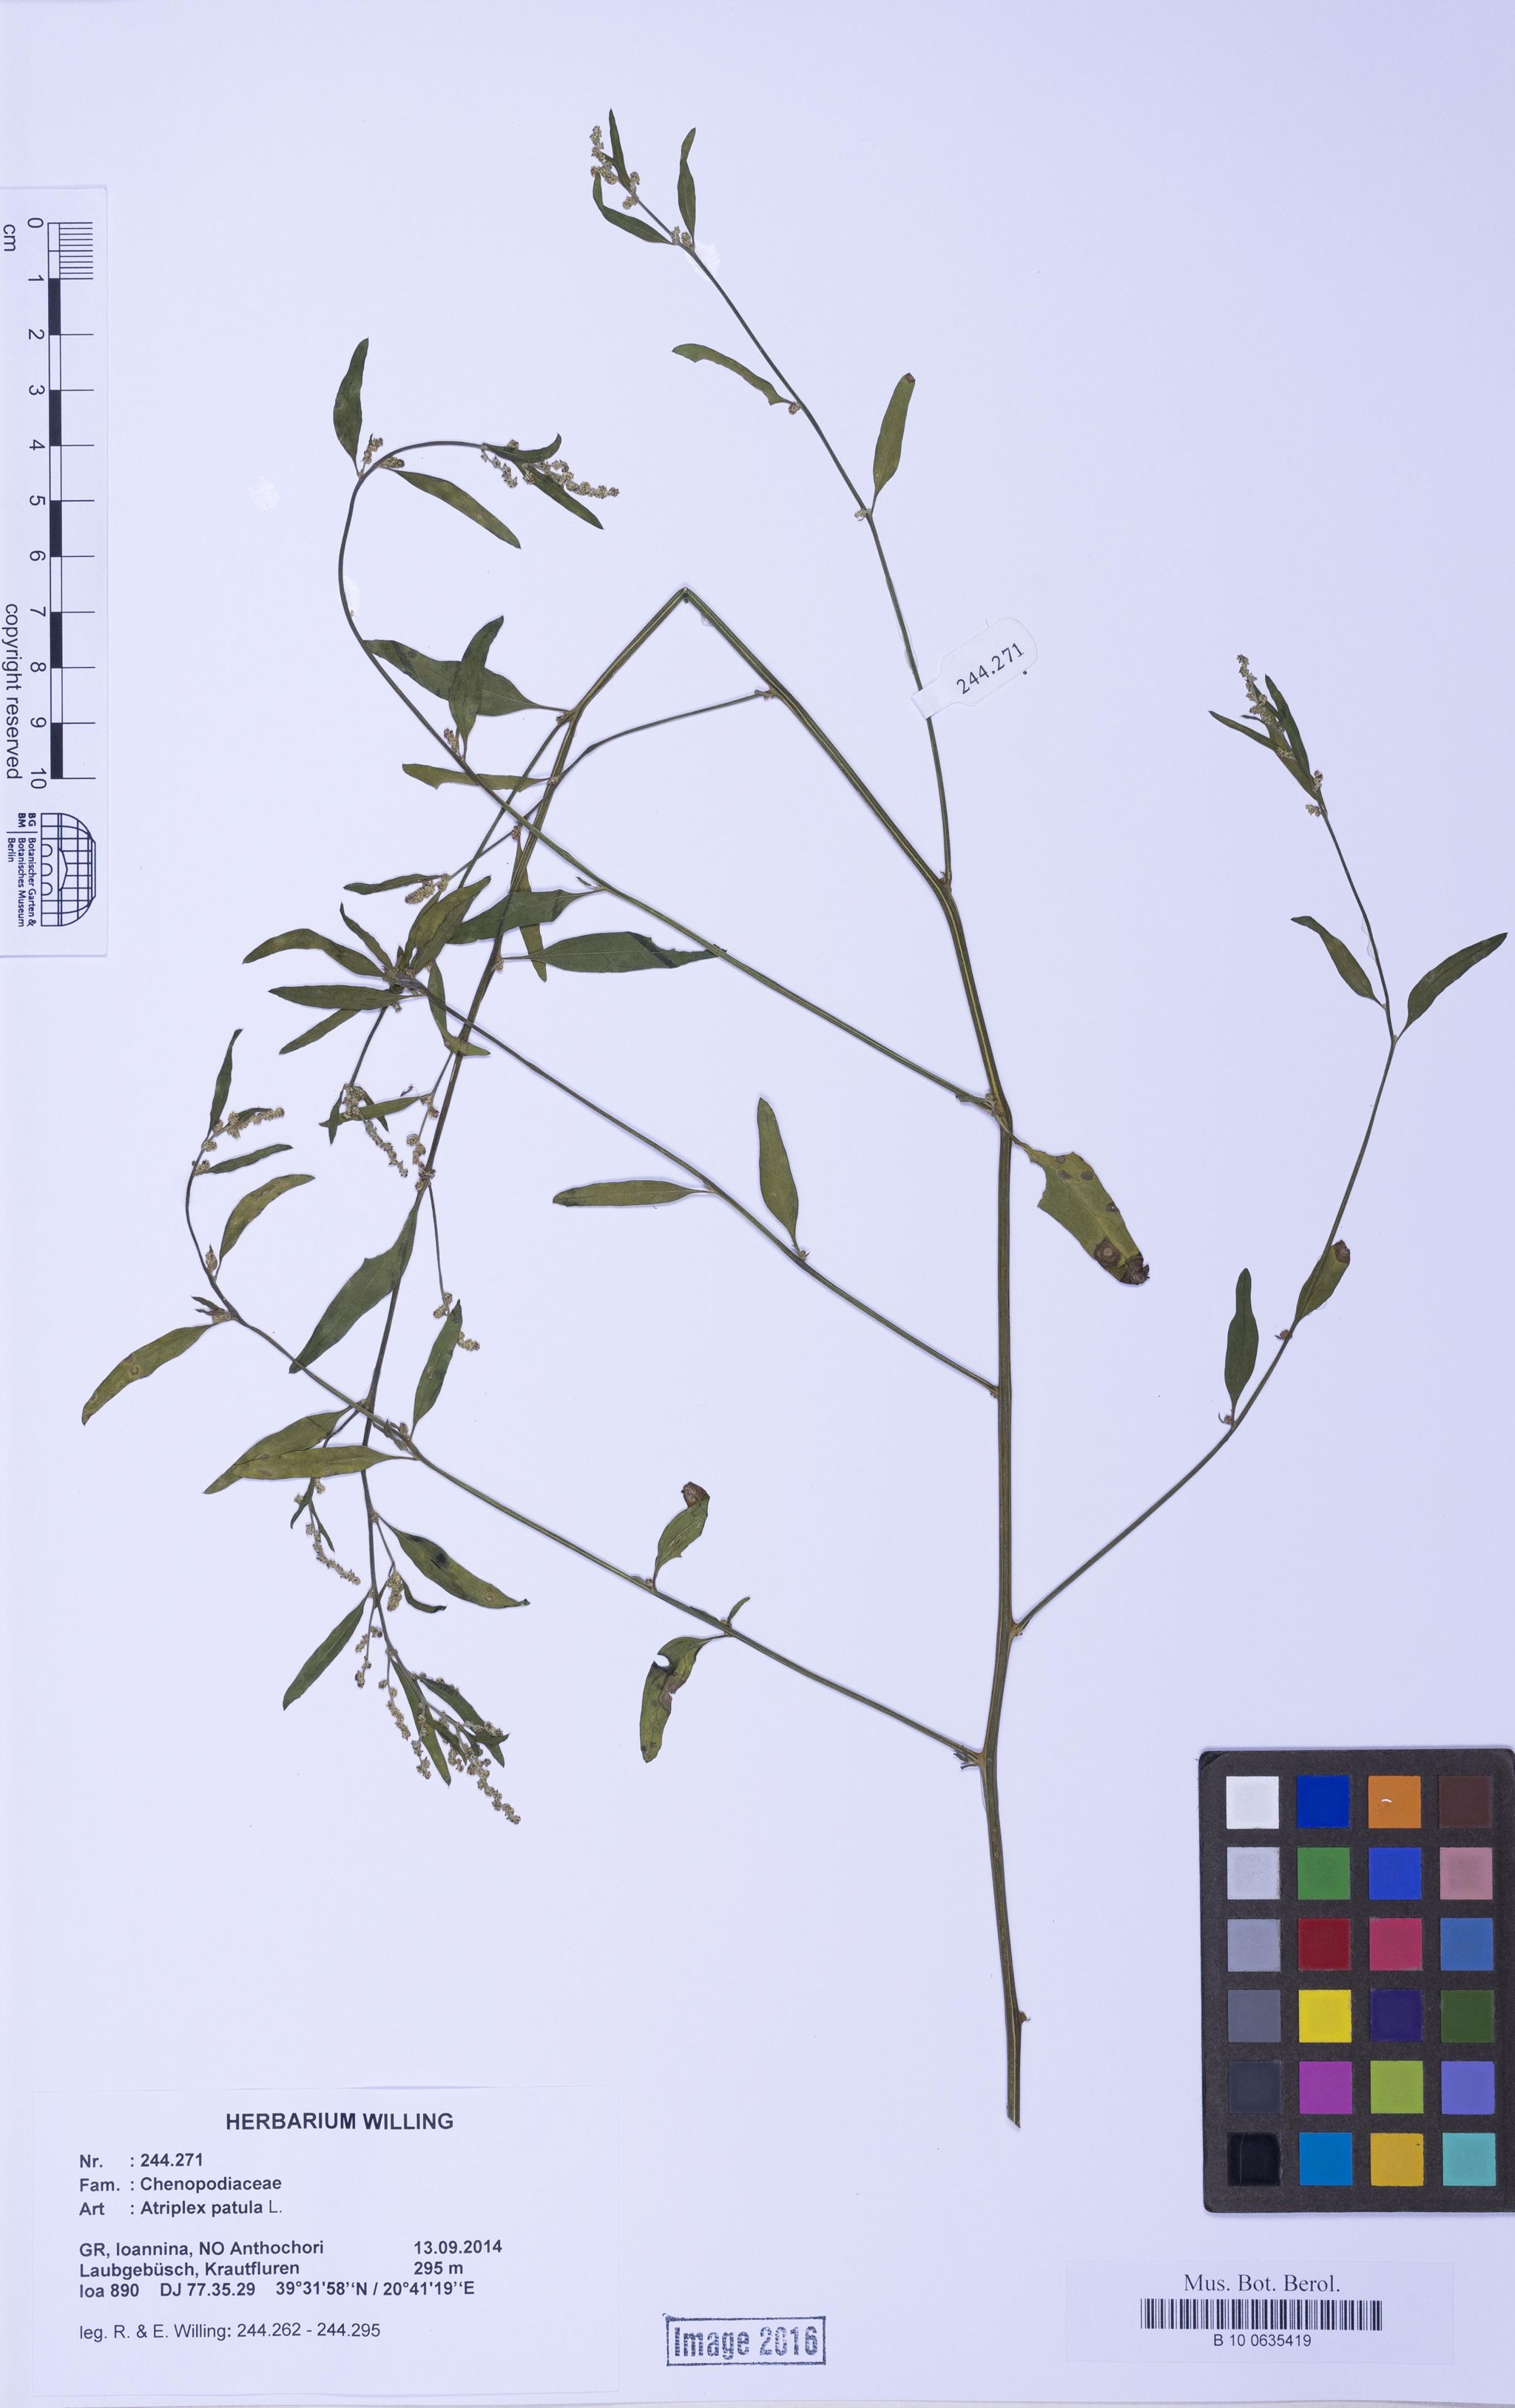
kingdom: Plantae
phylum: Tracheophyta
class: Magnoliopsida
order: Caryophyllales
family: Amaranthaceae
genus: Atriplex
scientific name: Atriplex patula
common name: Common orache
